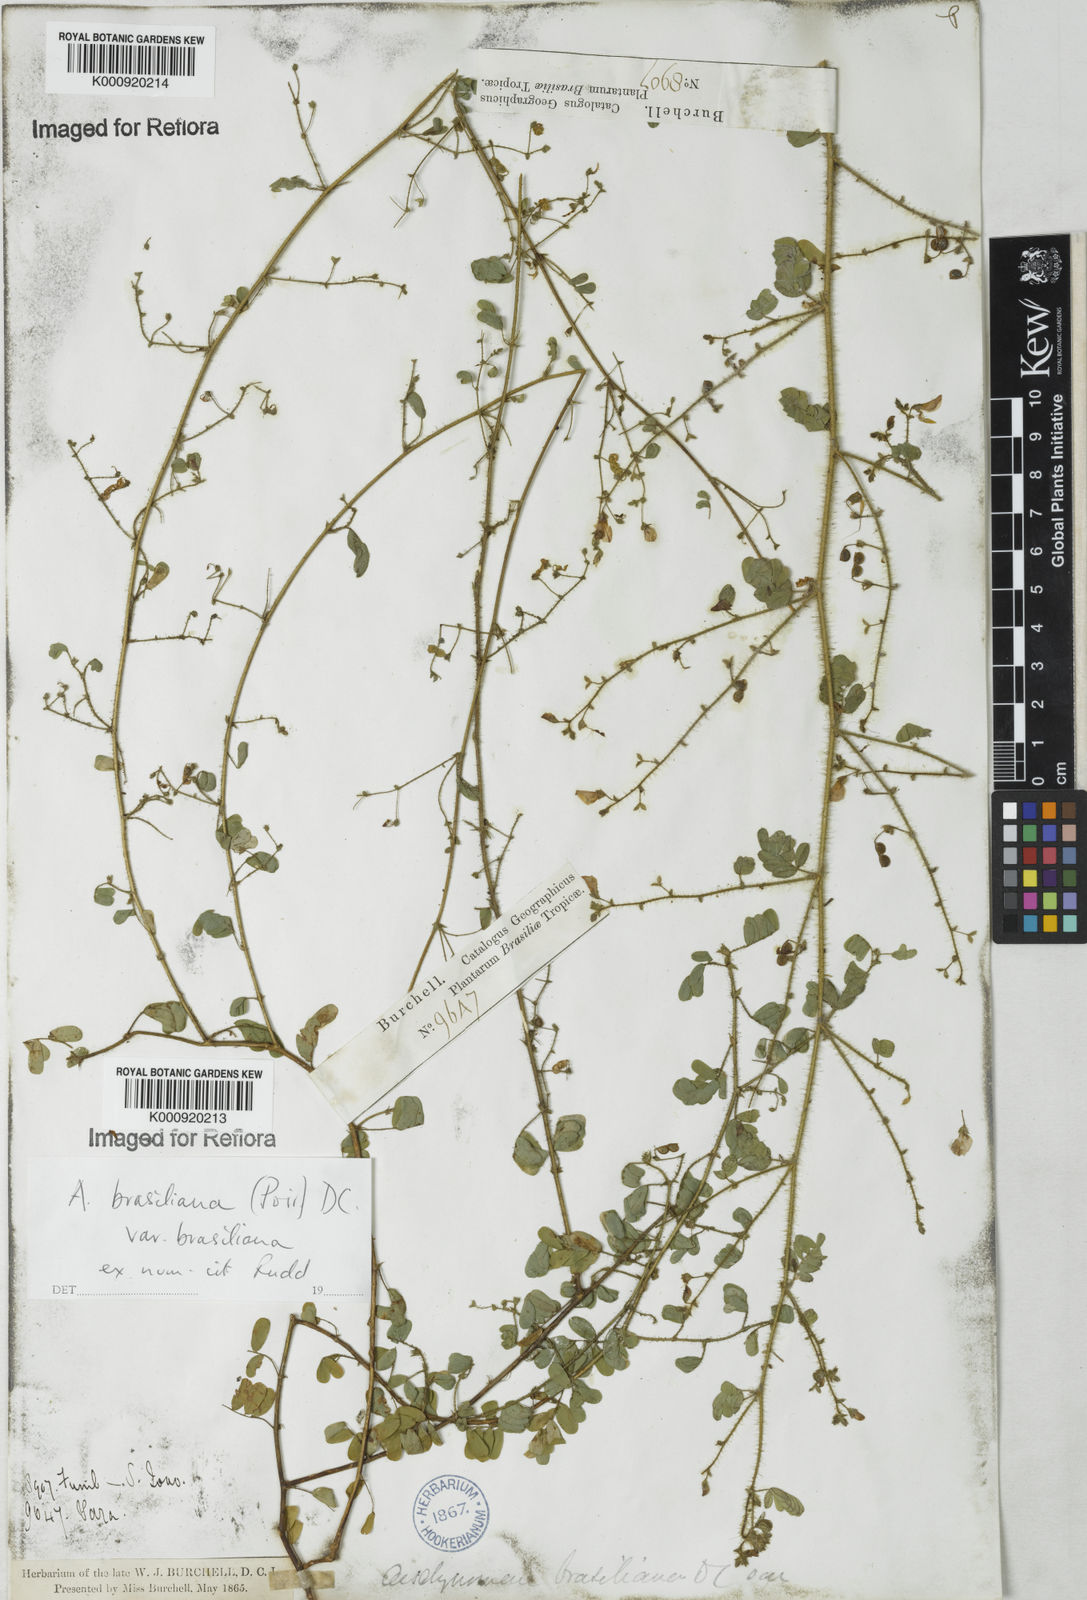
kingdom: Plantae
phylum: Tracheophyta
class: Magnoliopsida
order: Fabales
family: Fabaceae
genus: Ctenodon
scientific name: Ctenodon brasilianus
